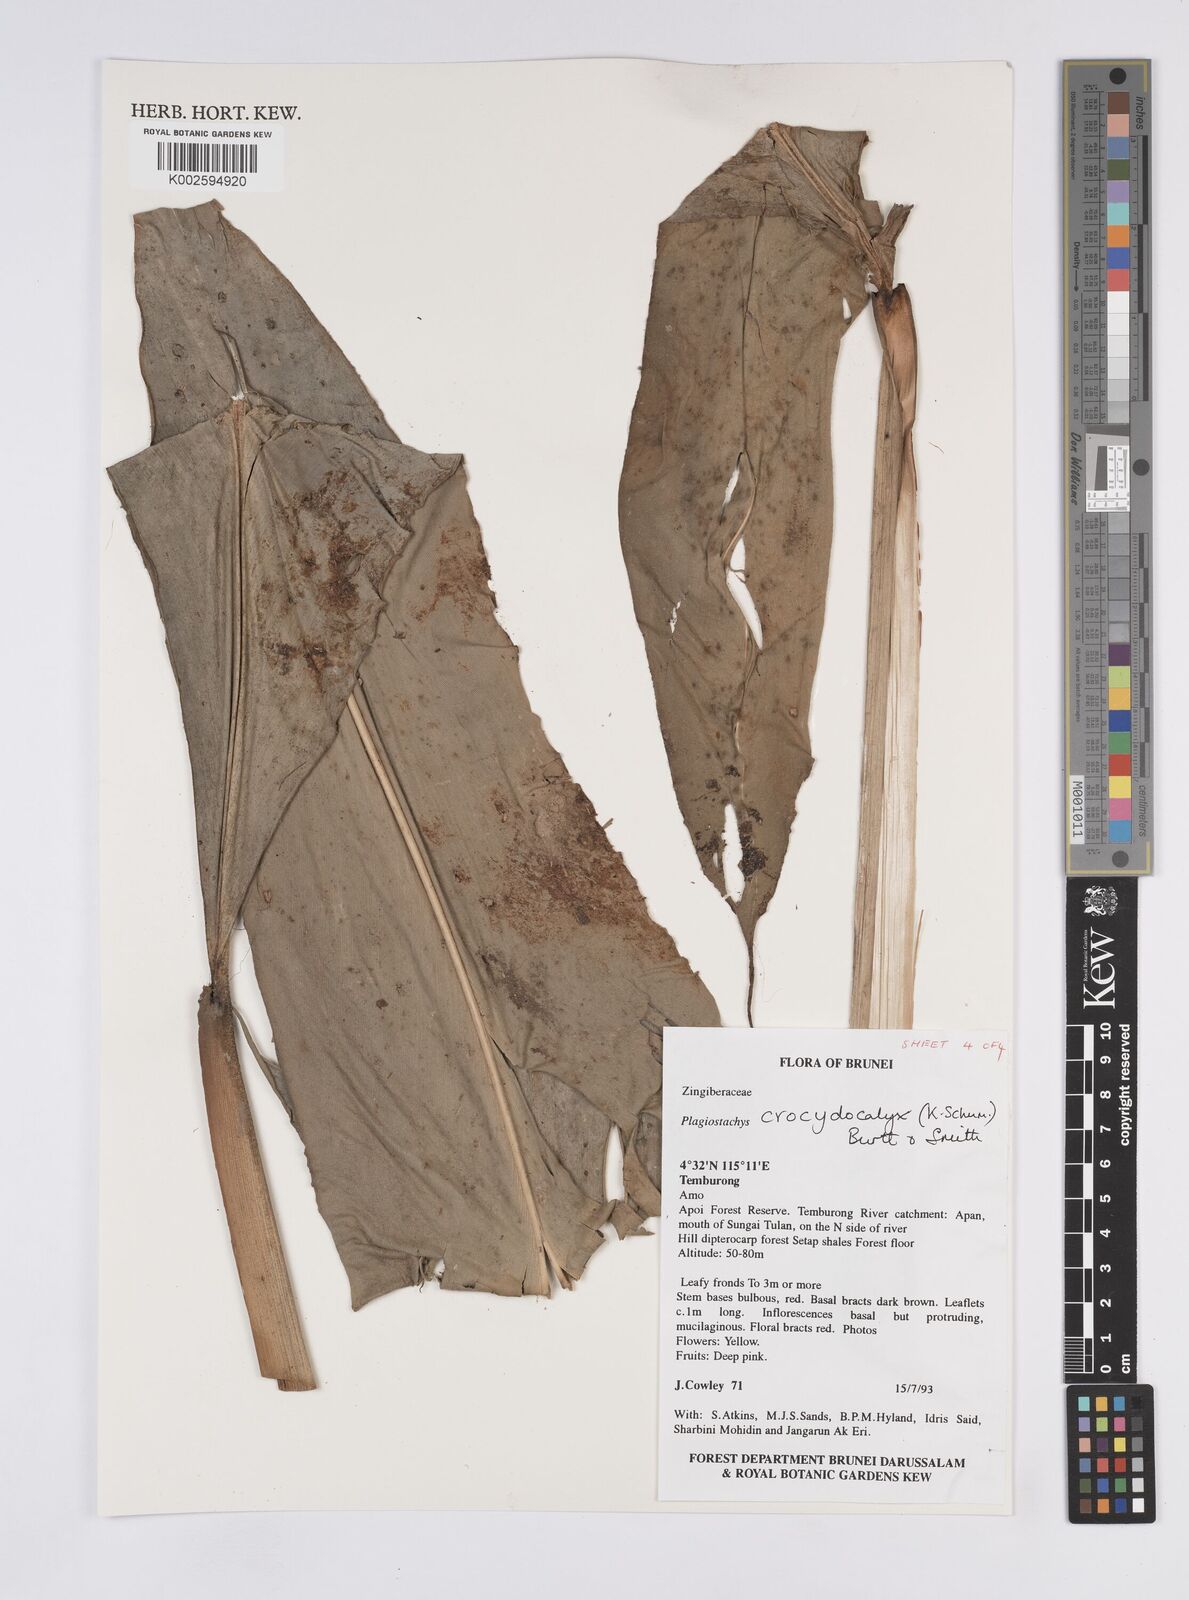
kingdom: Plantae
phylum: Tracheophyta
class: Liliopsida
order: Zingiberales
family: Zingiberaceae
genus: Plagiostachys
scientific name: Plagiostachys crocydocalyx
